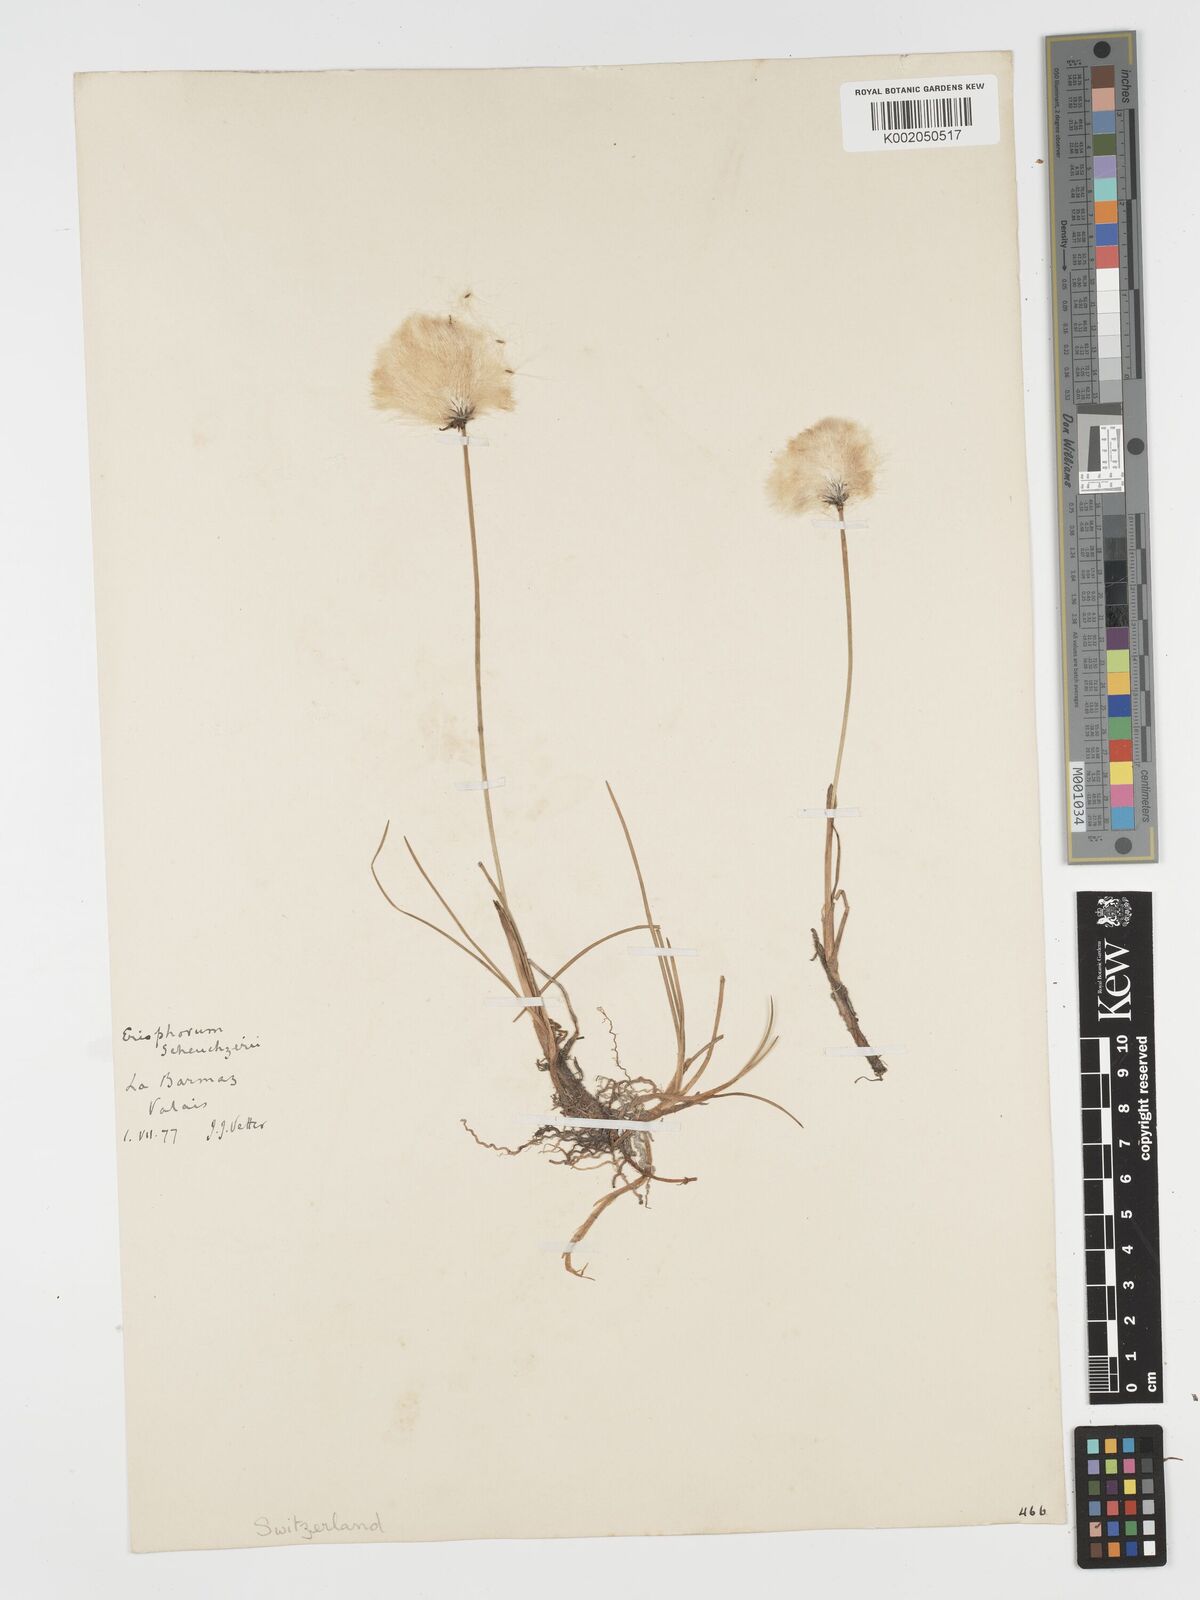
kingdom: Plantae
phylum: Tracheophyta
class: Liliopsida
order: Poales
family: Cyperaceae
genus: Eriophorum
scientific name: Eriophorum scheuchzeri
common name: Scheuchzer's cottongrass
